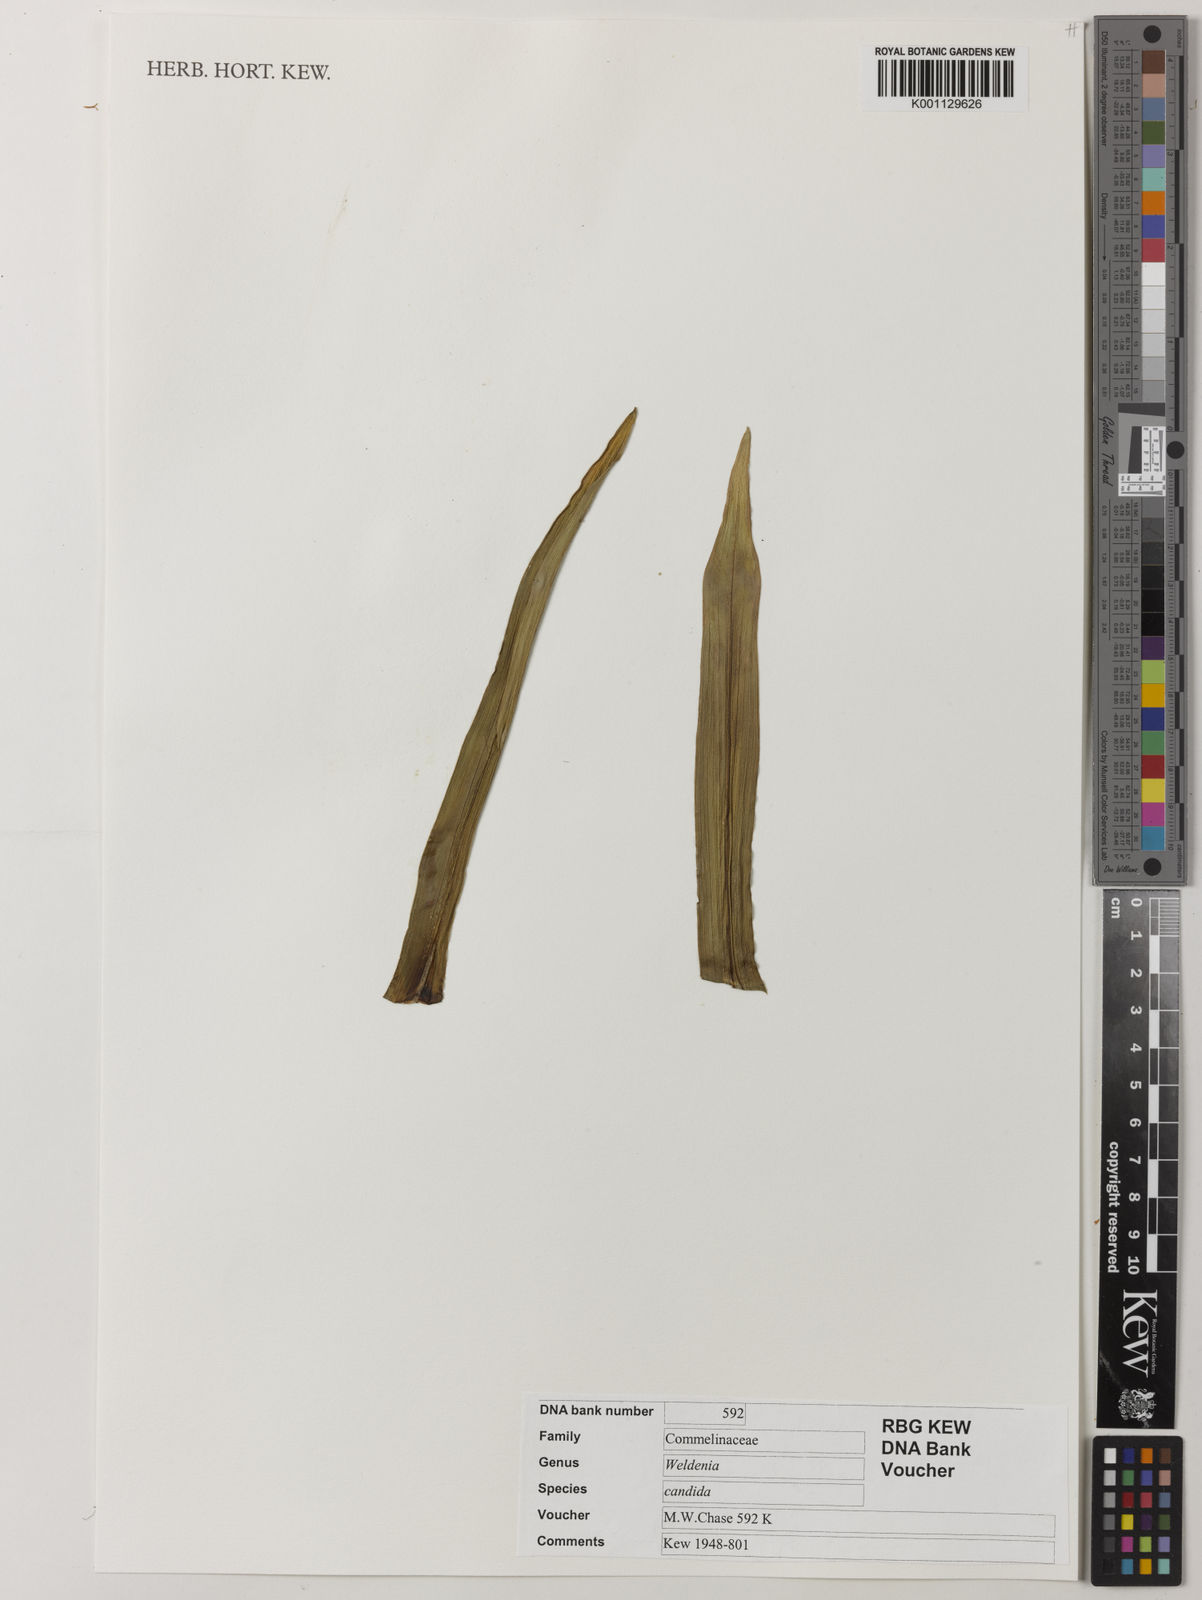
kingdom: Plantae
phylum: Tracheophyta
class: Liliopsida
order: Commelinales
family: Commelinaceae
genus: Weldenia
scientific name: Weldenia candida
